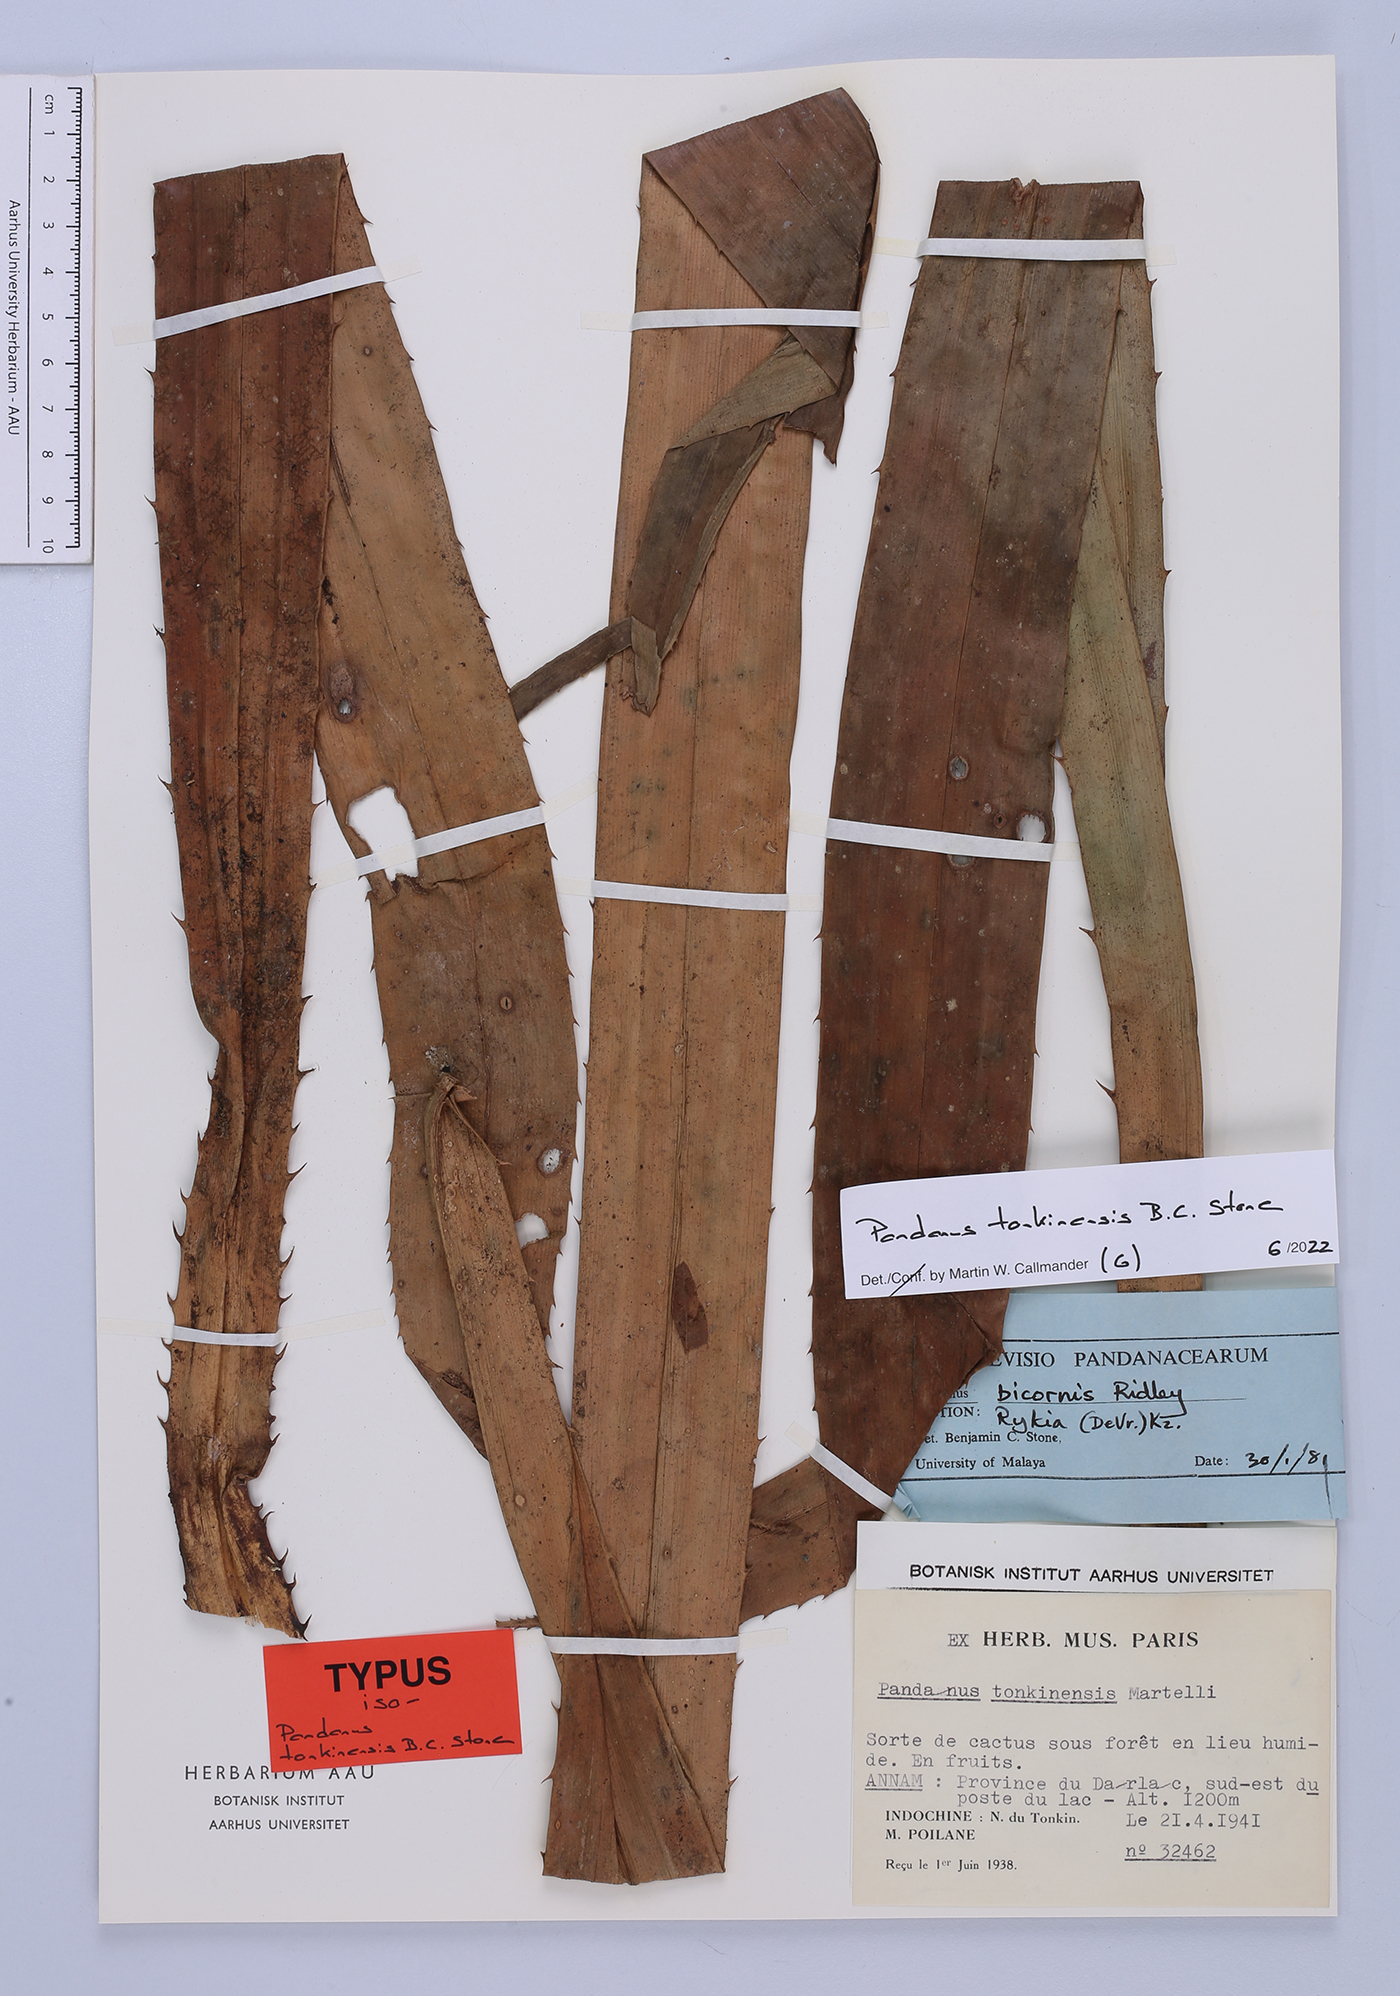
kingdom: Plantae
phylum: Tracheophyta
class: Liliopsida
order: Pandanales
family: Pandanaceae
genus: Pandanus
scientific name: Pandanus tonkinensis
